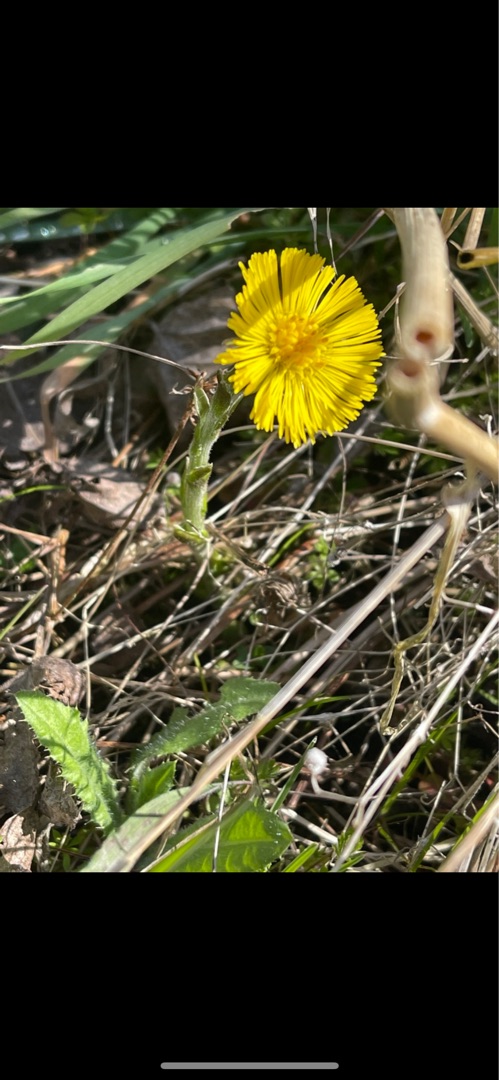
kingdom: Plantae
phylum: Tracheophyta
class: Magnoliopsida
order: Asterales
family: Asteraceae
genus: Tussilago
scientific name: Tussilago farfara
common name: Følfod
